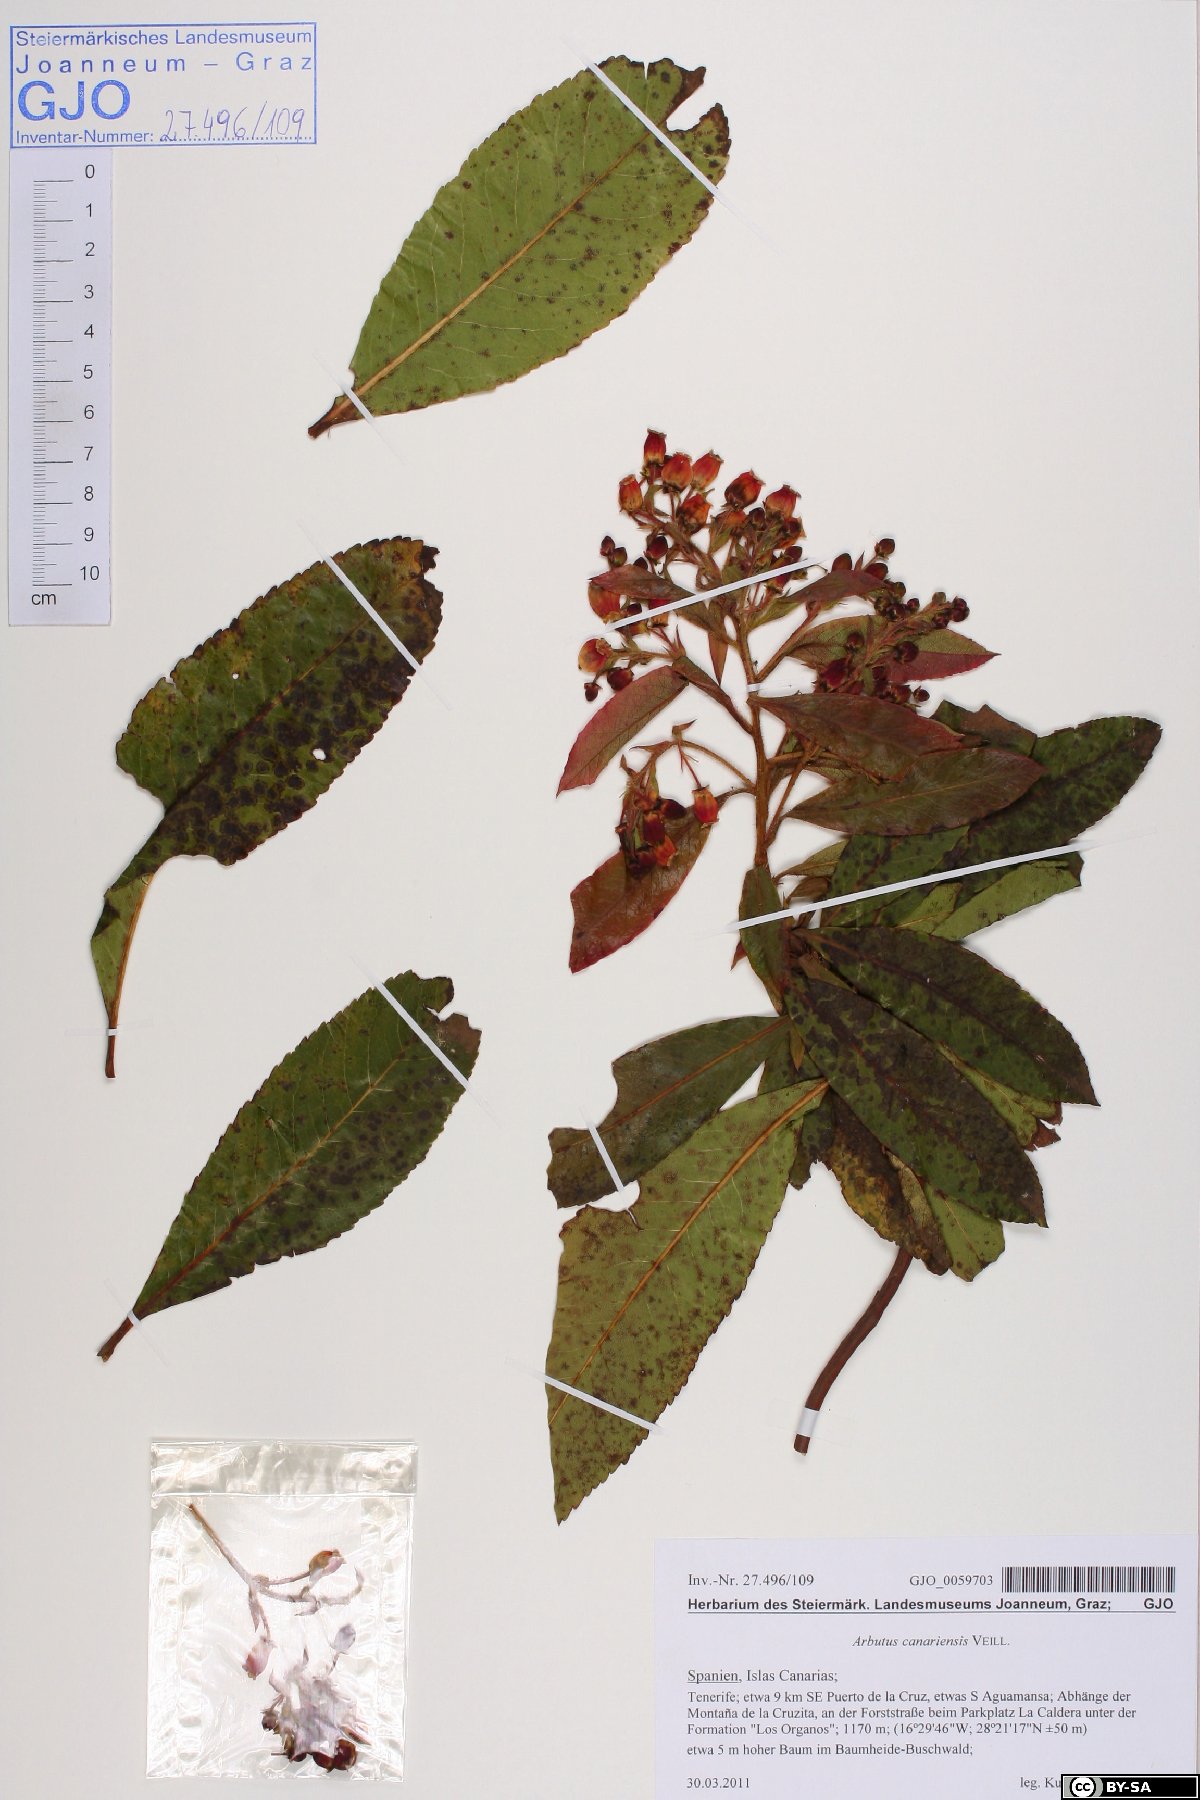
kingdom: Plantae
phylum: Tracheophyta
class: Magnoliopsida
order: Ericales
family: Ericaceae
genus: Arbutus
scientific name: Arbutus canariensis
